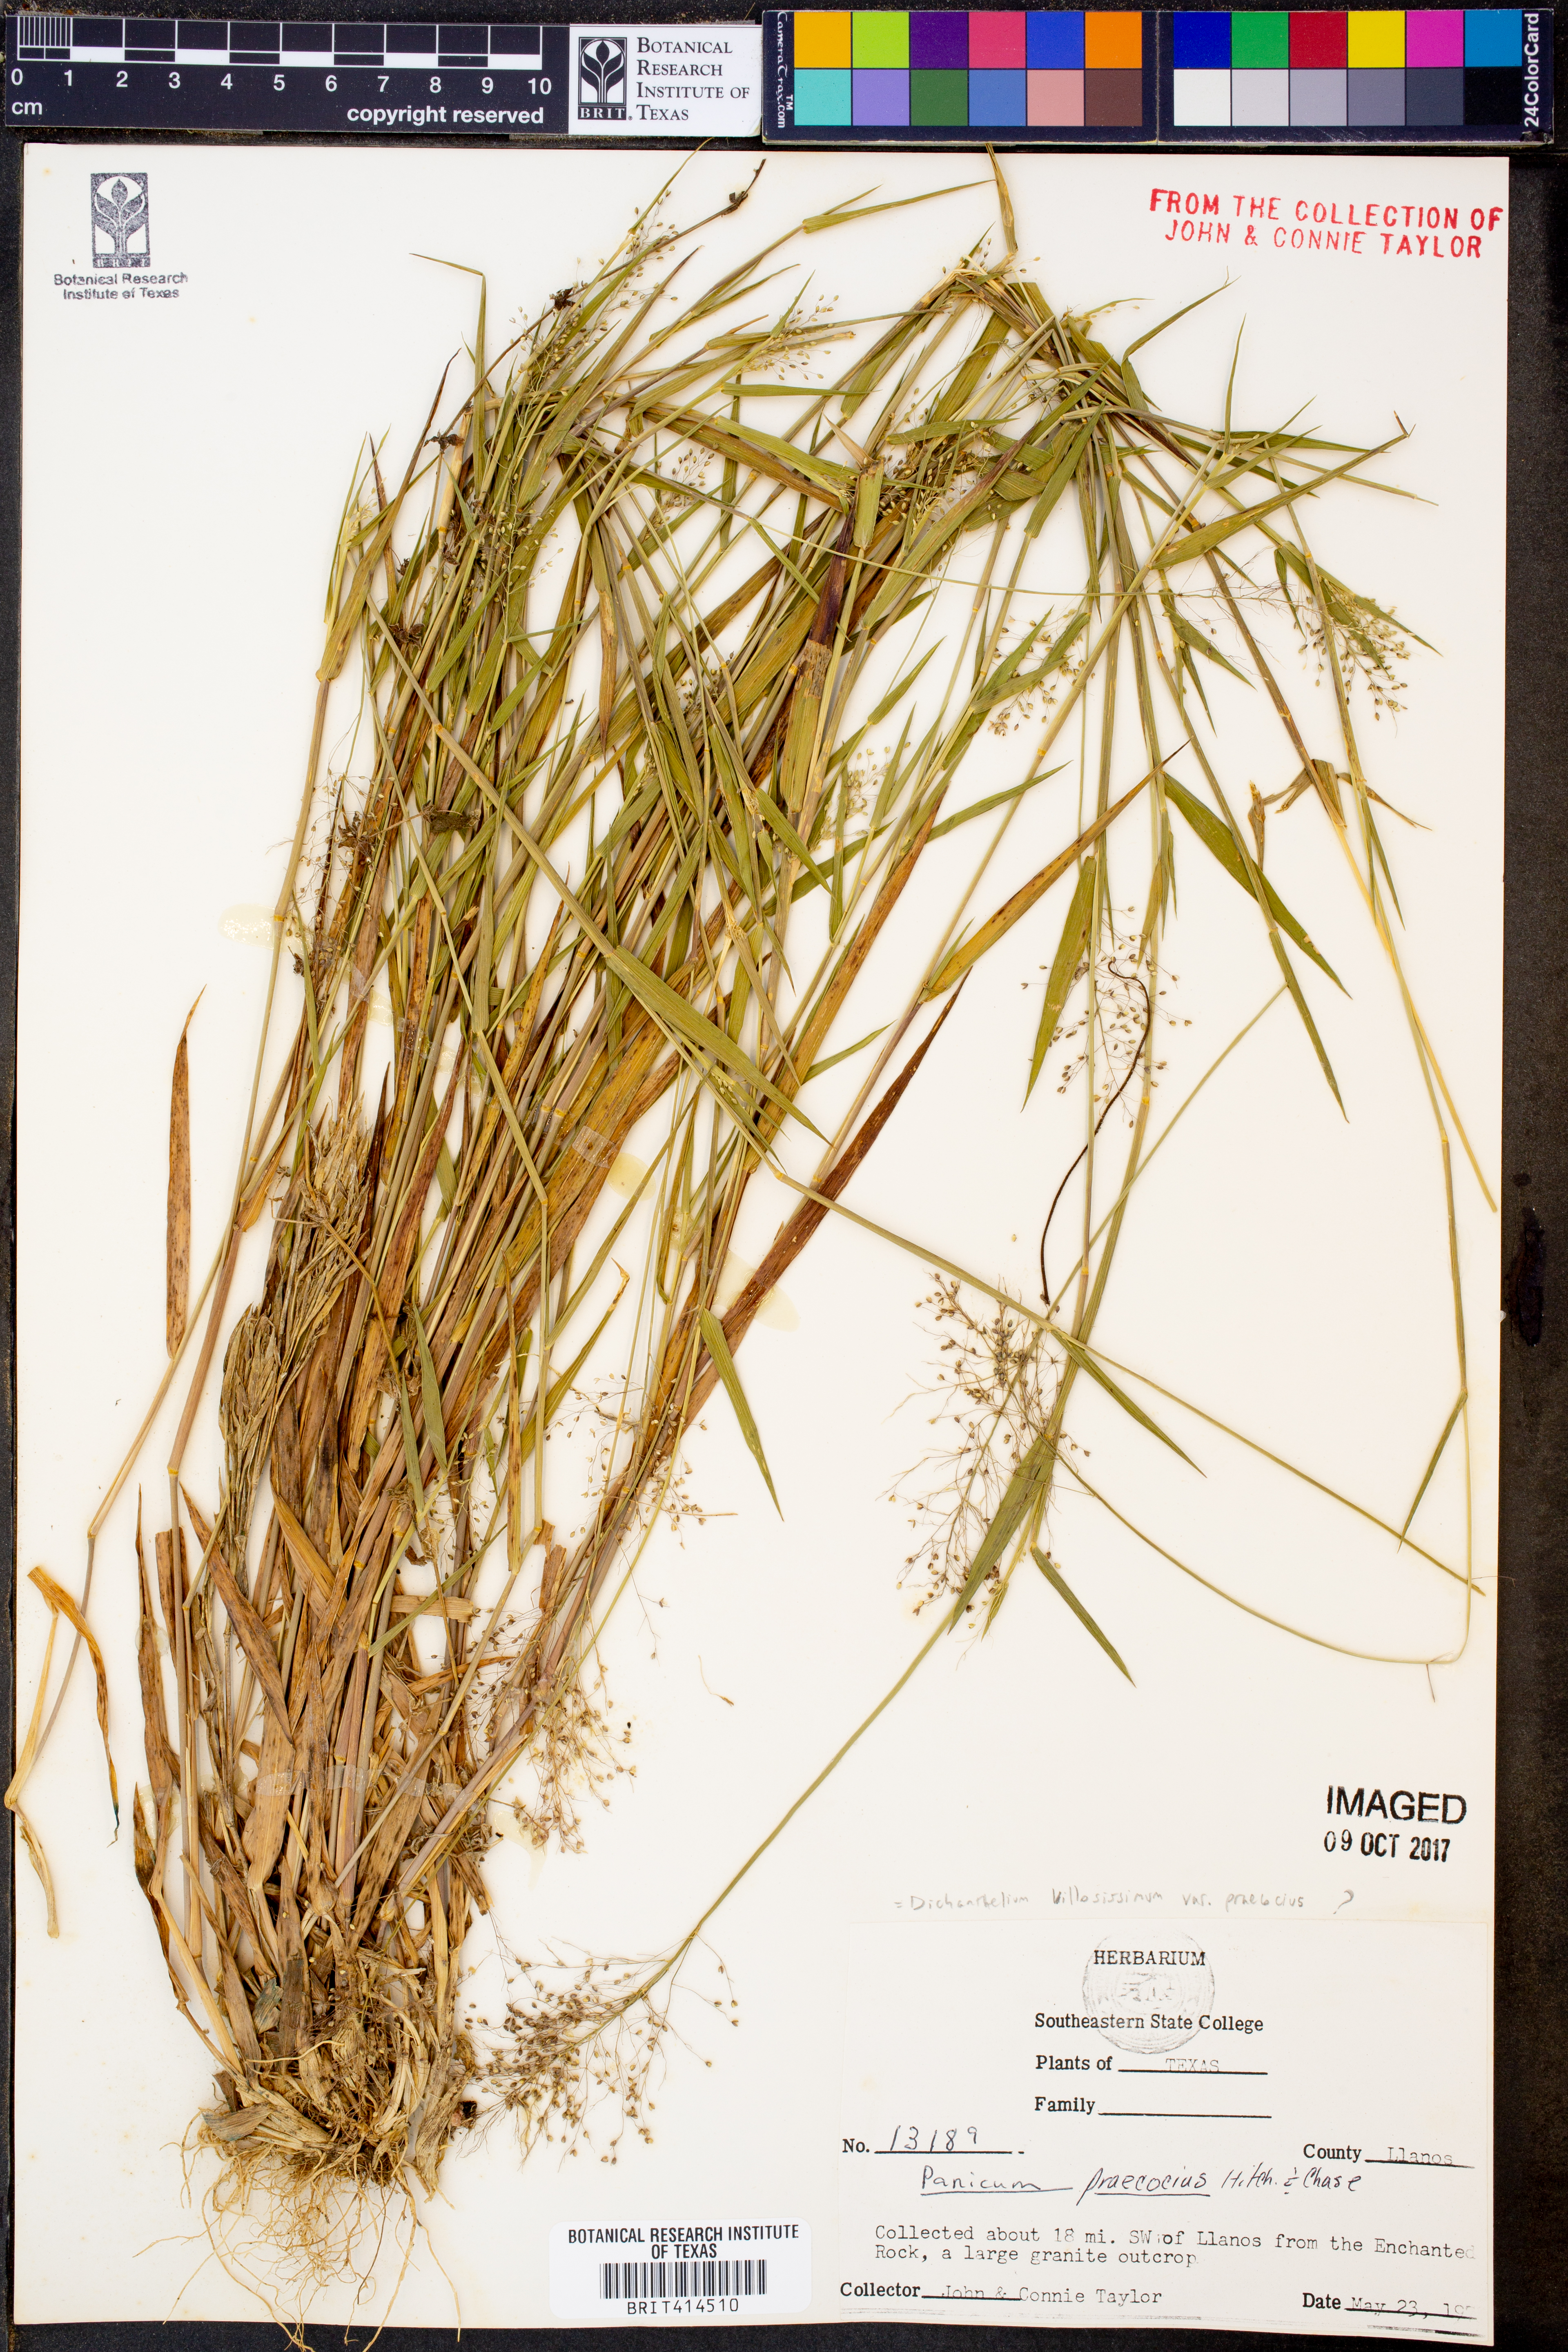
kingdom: Plantae
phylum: Tracheophyta
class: Liliopsida
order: Poales
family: Poaceae
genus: Dichanthelium
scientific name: Dichanthelium praecocius
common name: Early-branching panicgrass
